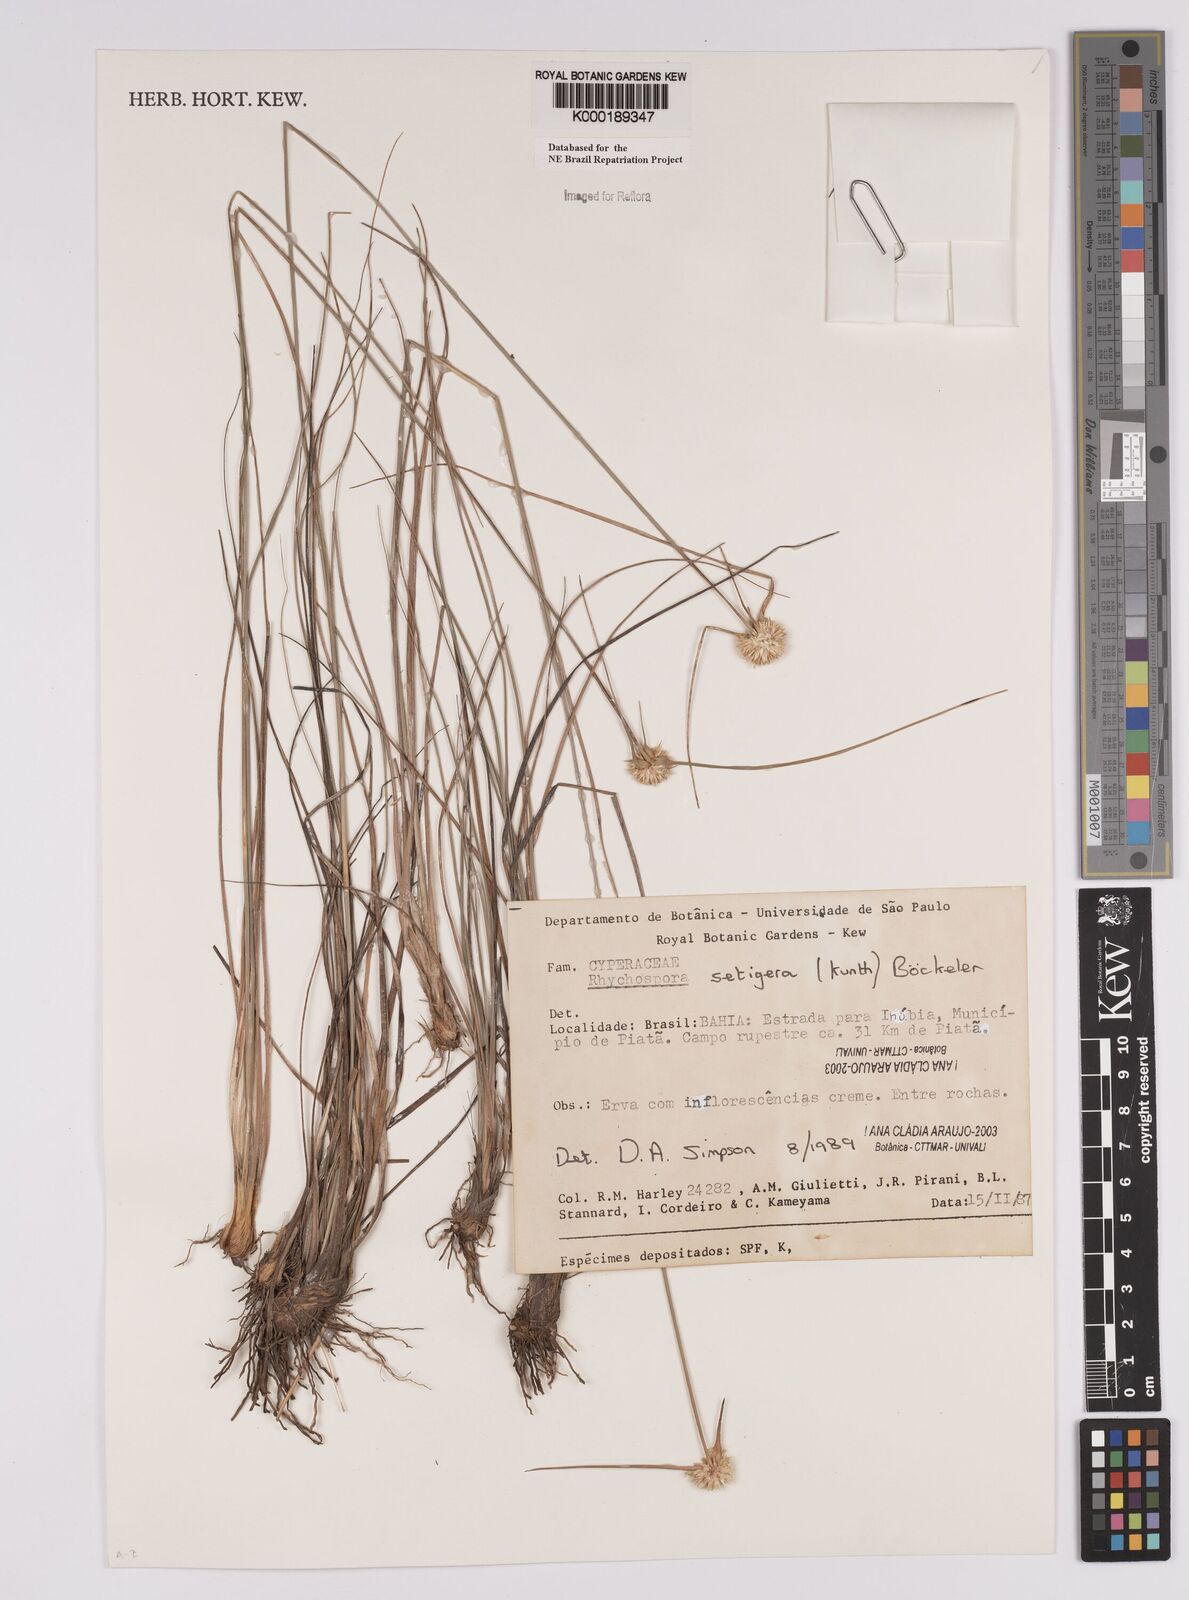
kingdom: Plantae
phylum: Tracheophyta
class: Liliopsida
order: Poales
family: Cyperaceae
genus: Rhynchospora
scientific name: Rhynchospora
